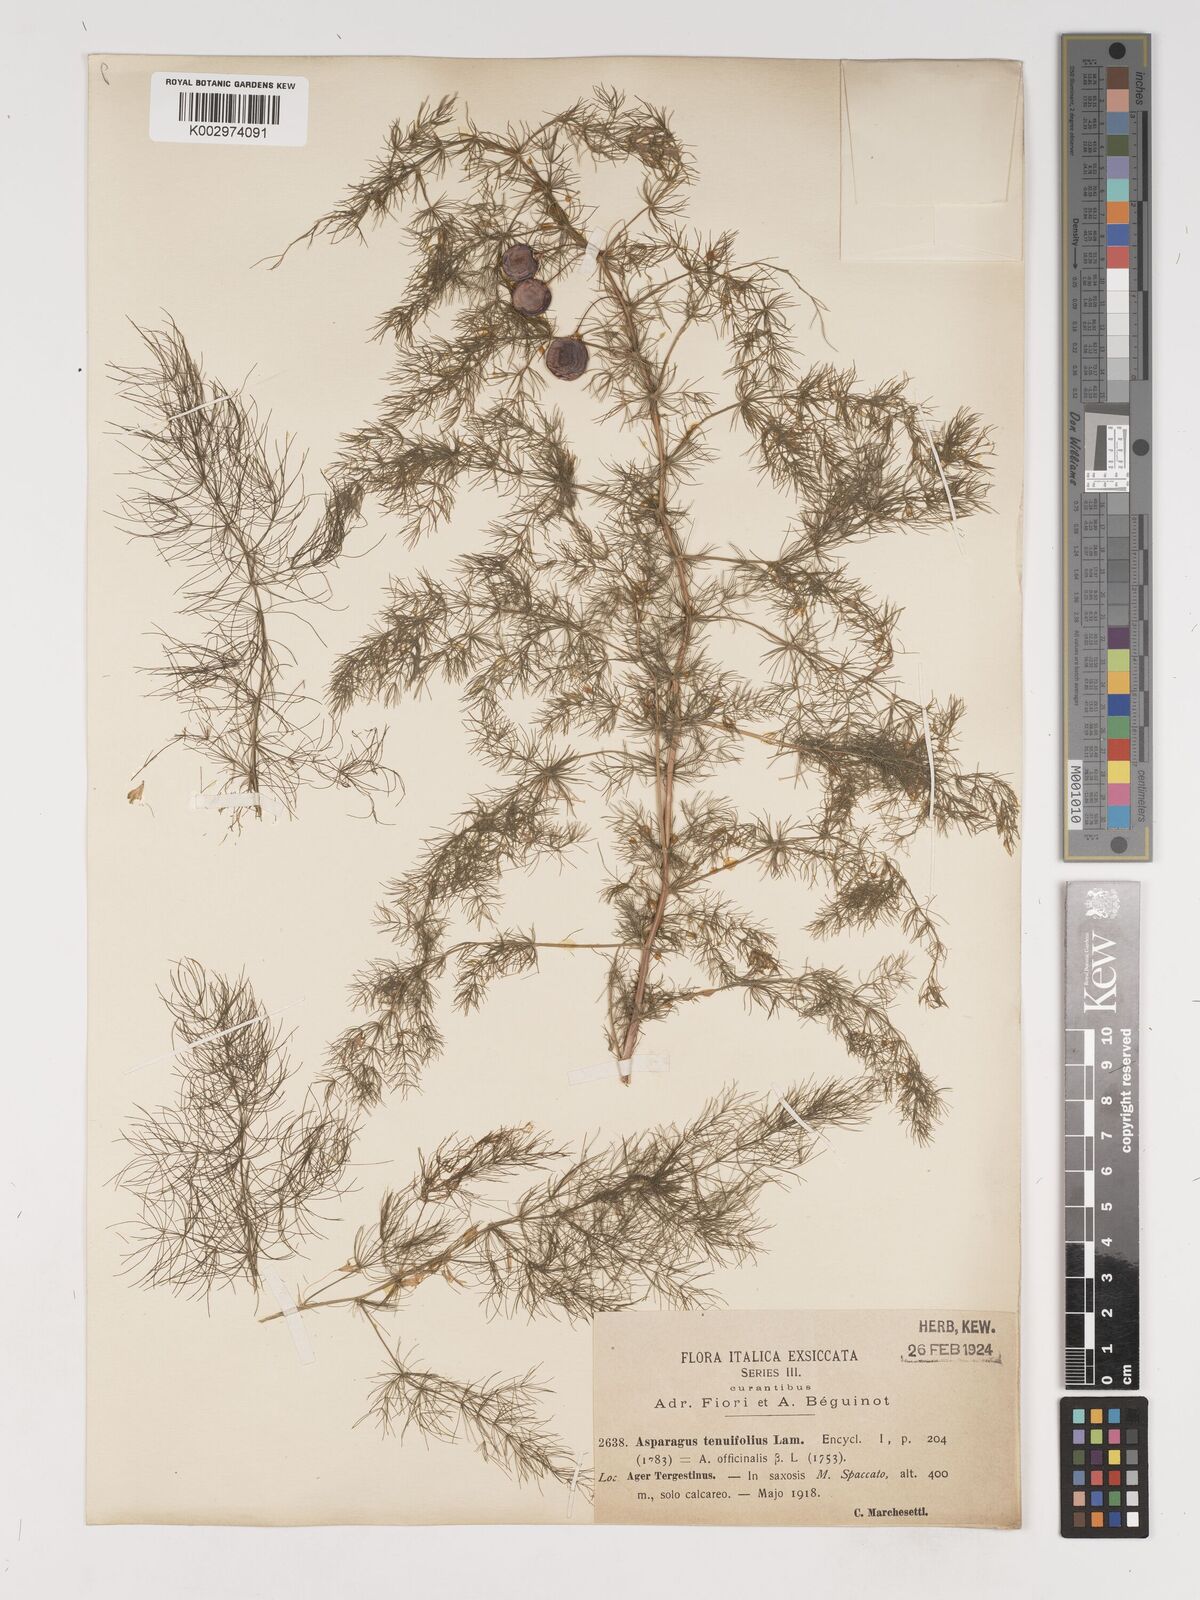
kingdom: Plantae
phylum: Tracheophyta
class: Liliopsida
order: Asparagales
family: Asparagaceae
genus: Asparagus
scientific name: Asparagus tenuifolius
